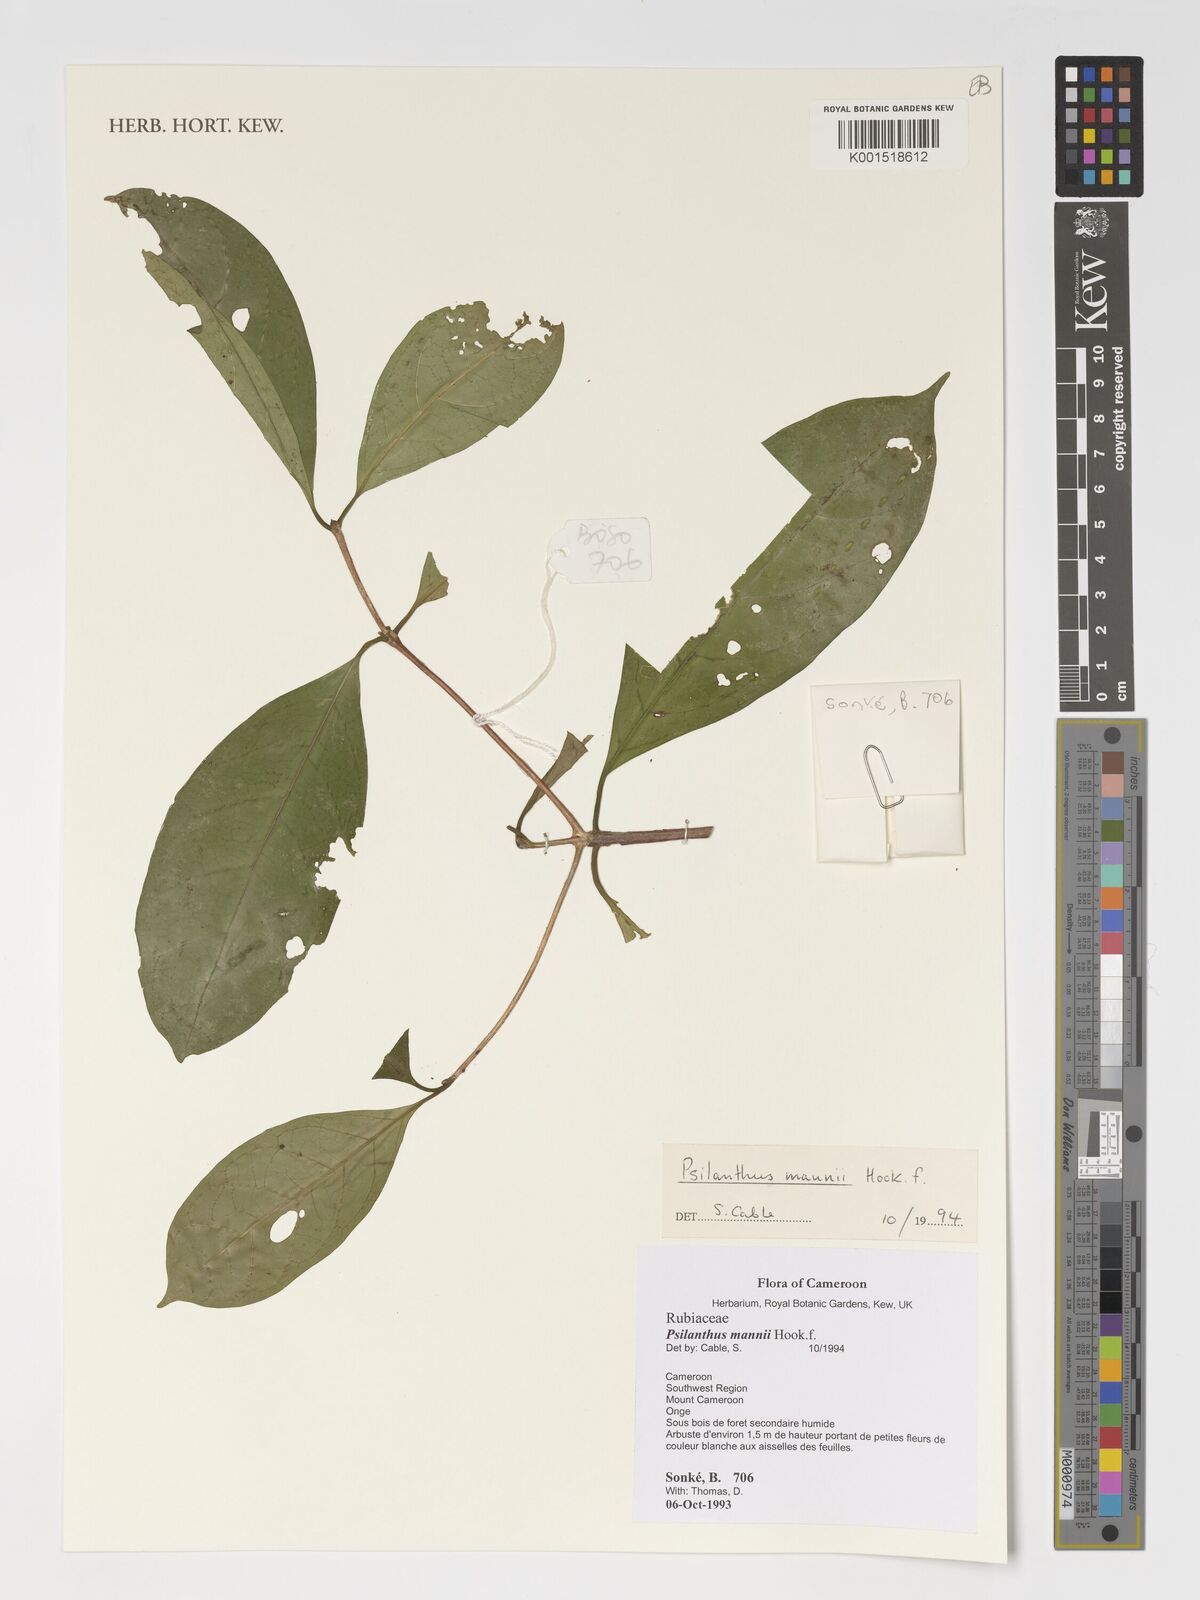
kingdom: Plantae
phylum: Tracheophyta
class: Magnoliopsida
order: Gentianales
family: Rubiaceae
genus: Coffea
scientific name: Coffea mannii
